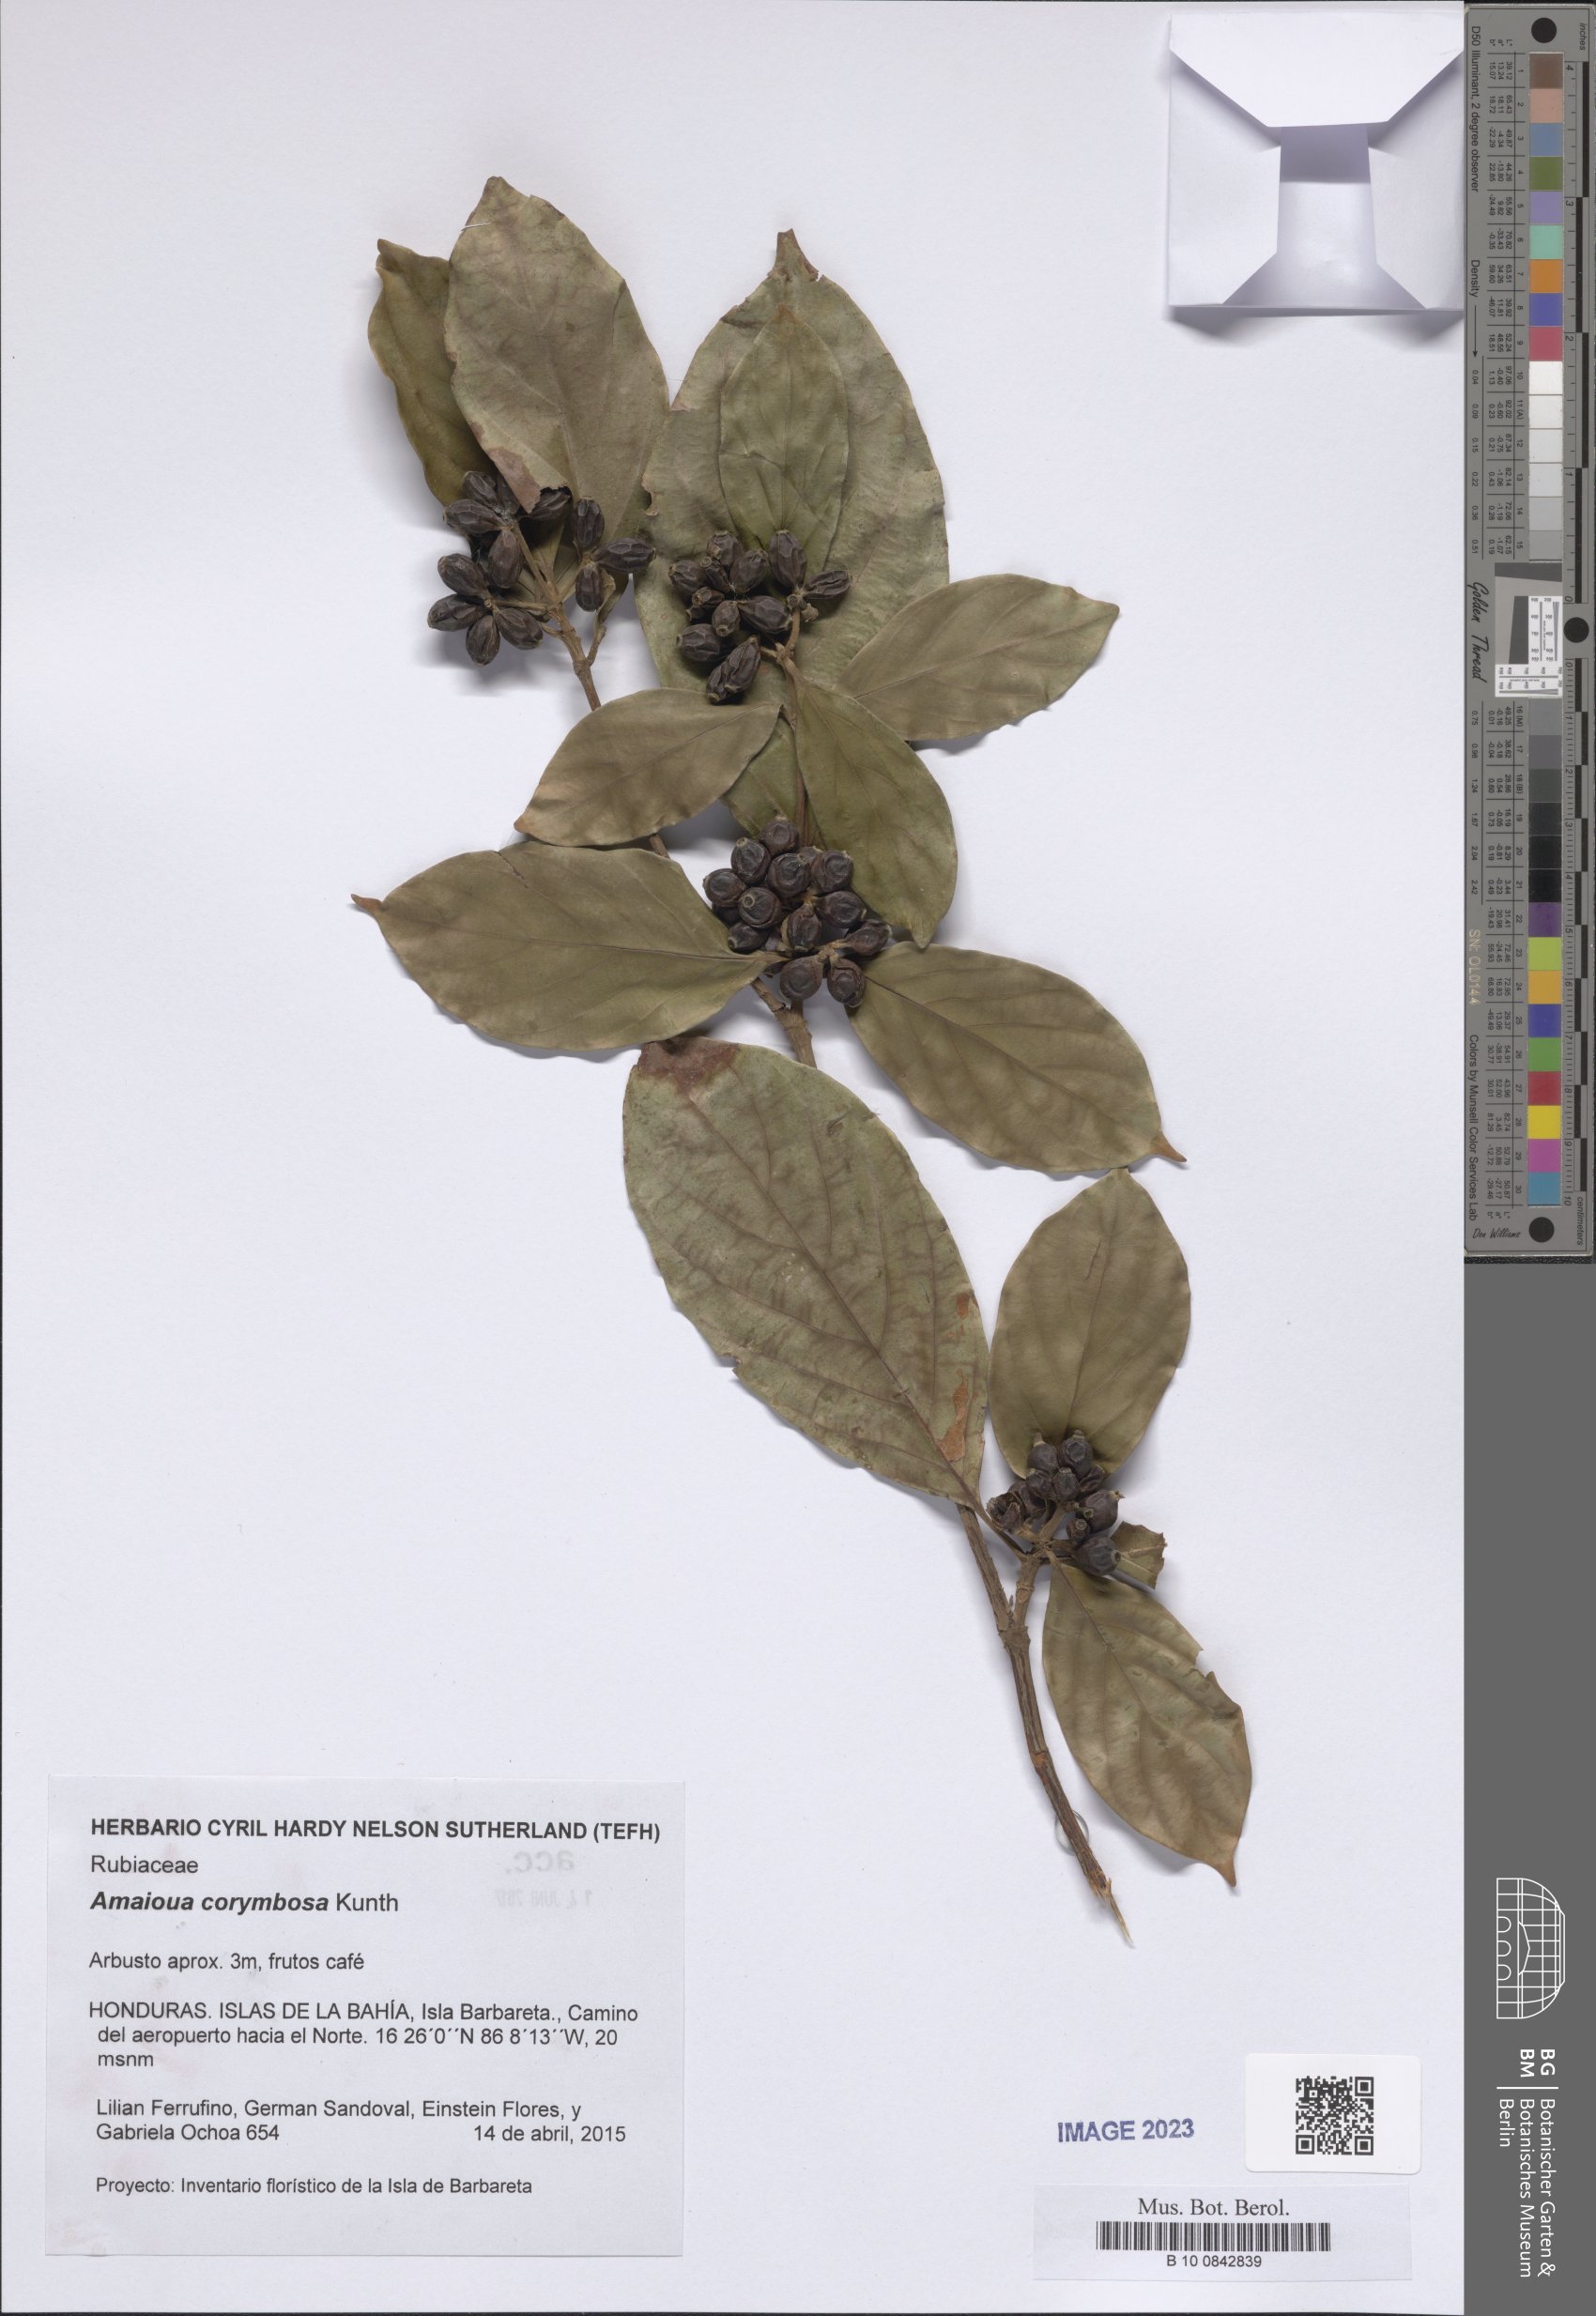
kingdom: Plantae
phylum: Tracheophyta
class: Magnoliopsida
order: Gentianales
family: Rubiaceae
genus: Amaioua
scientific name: Amaioua glomerulata
